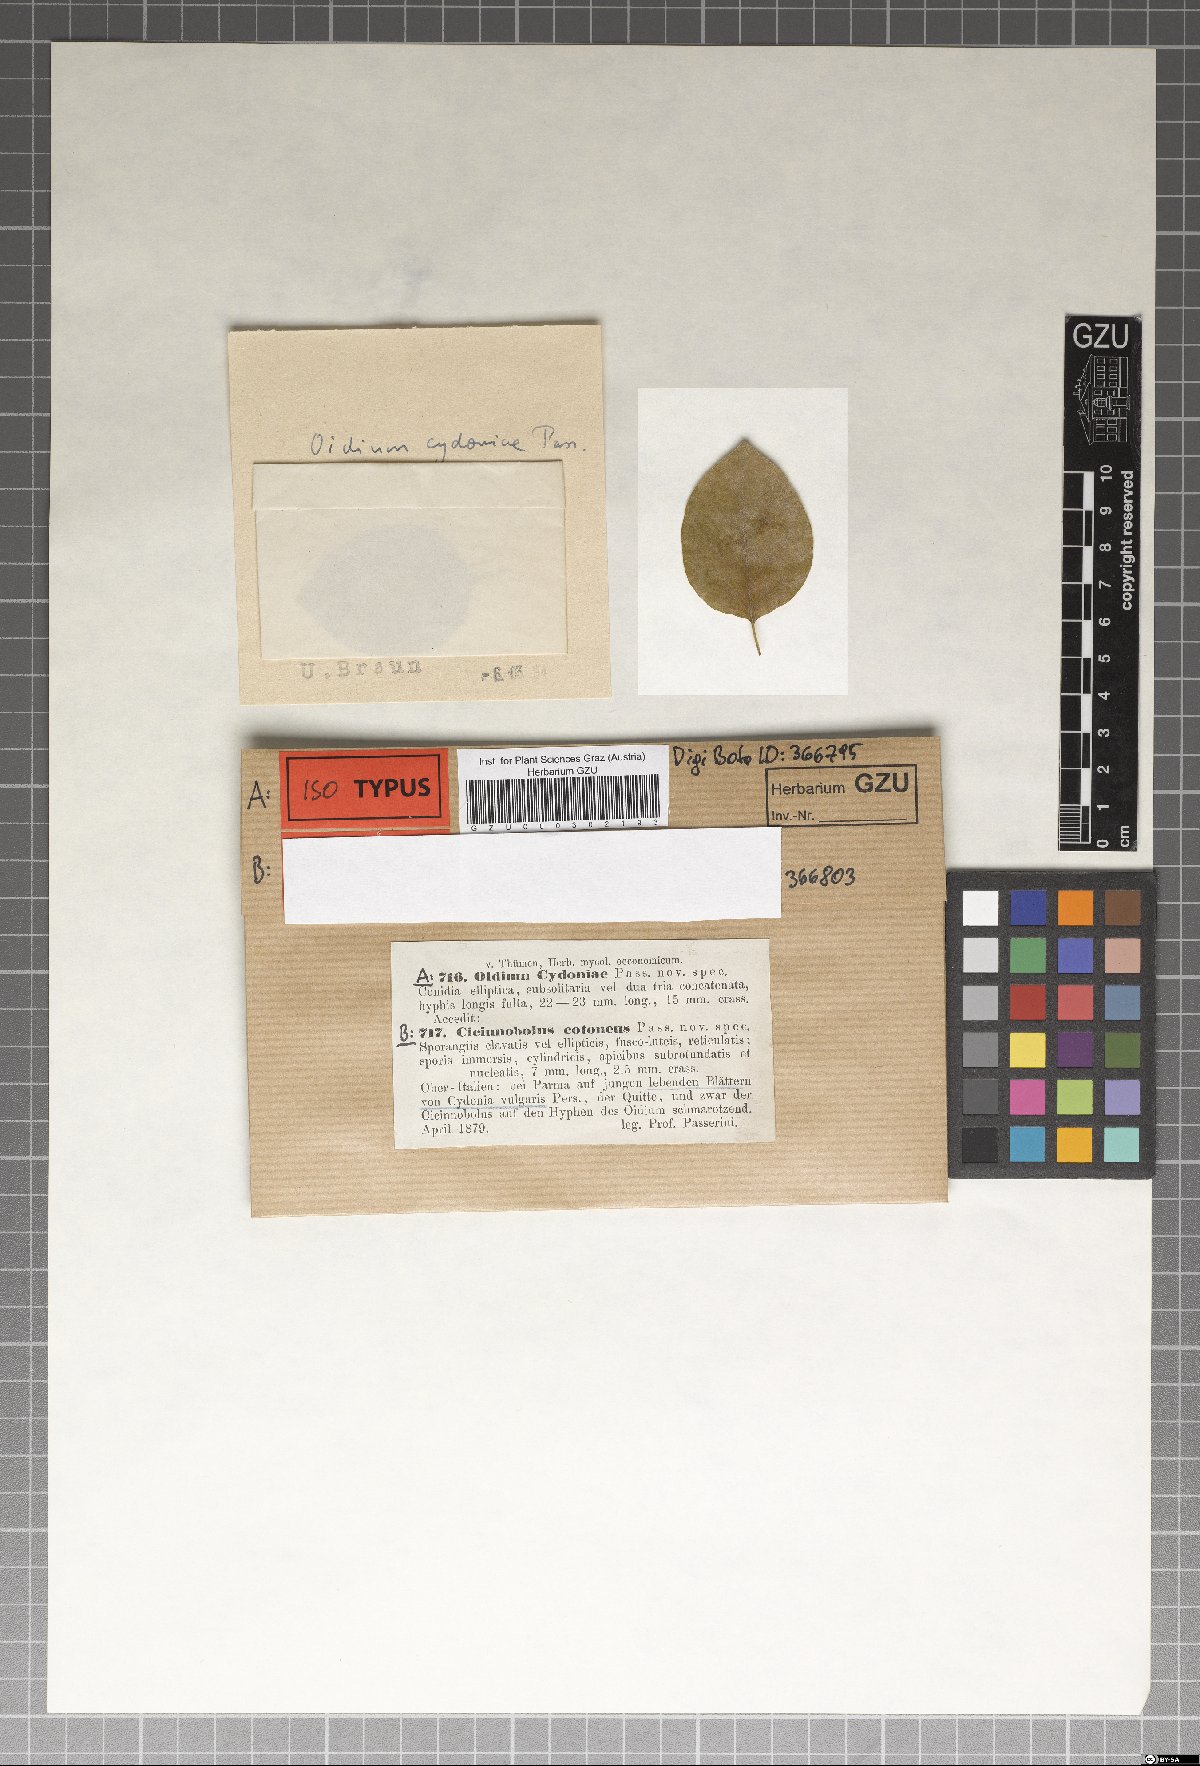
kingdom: Fungi
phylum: Ascomycota
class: Leotiomycetes
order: Helotiales
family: Erysiphaceae
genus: Podosphaera
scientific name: Podosphaera clandestina
